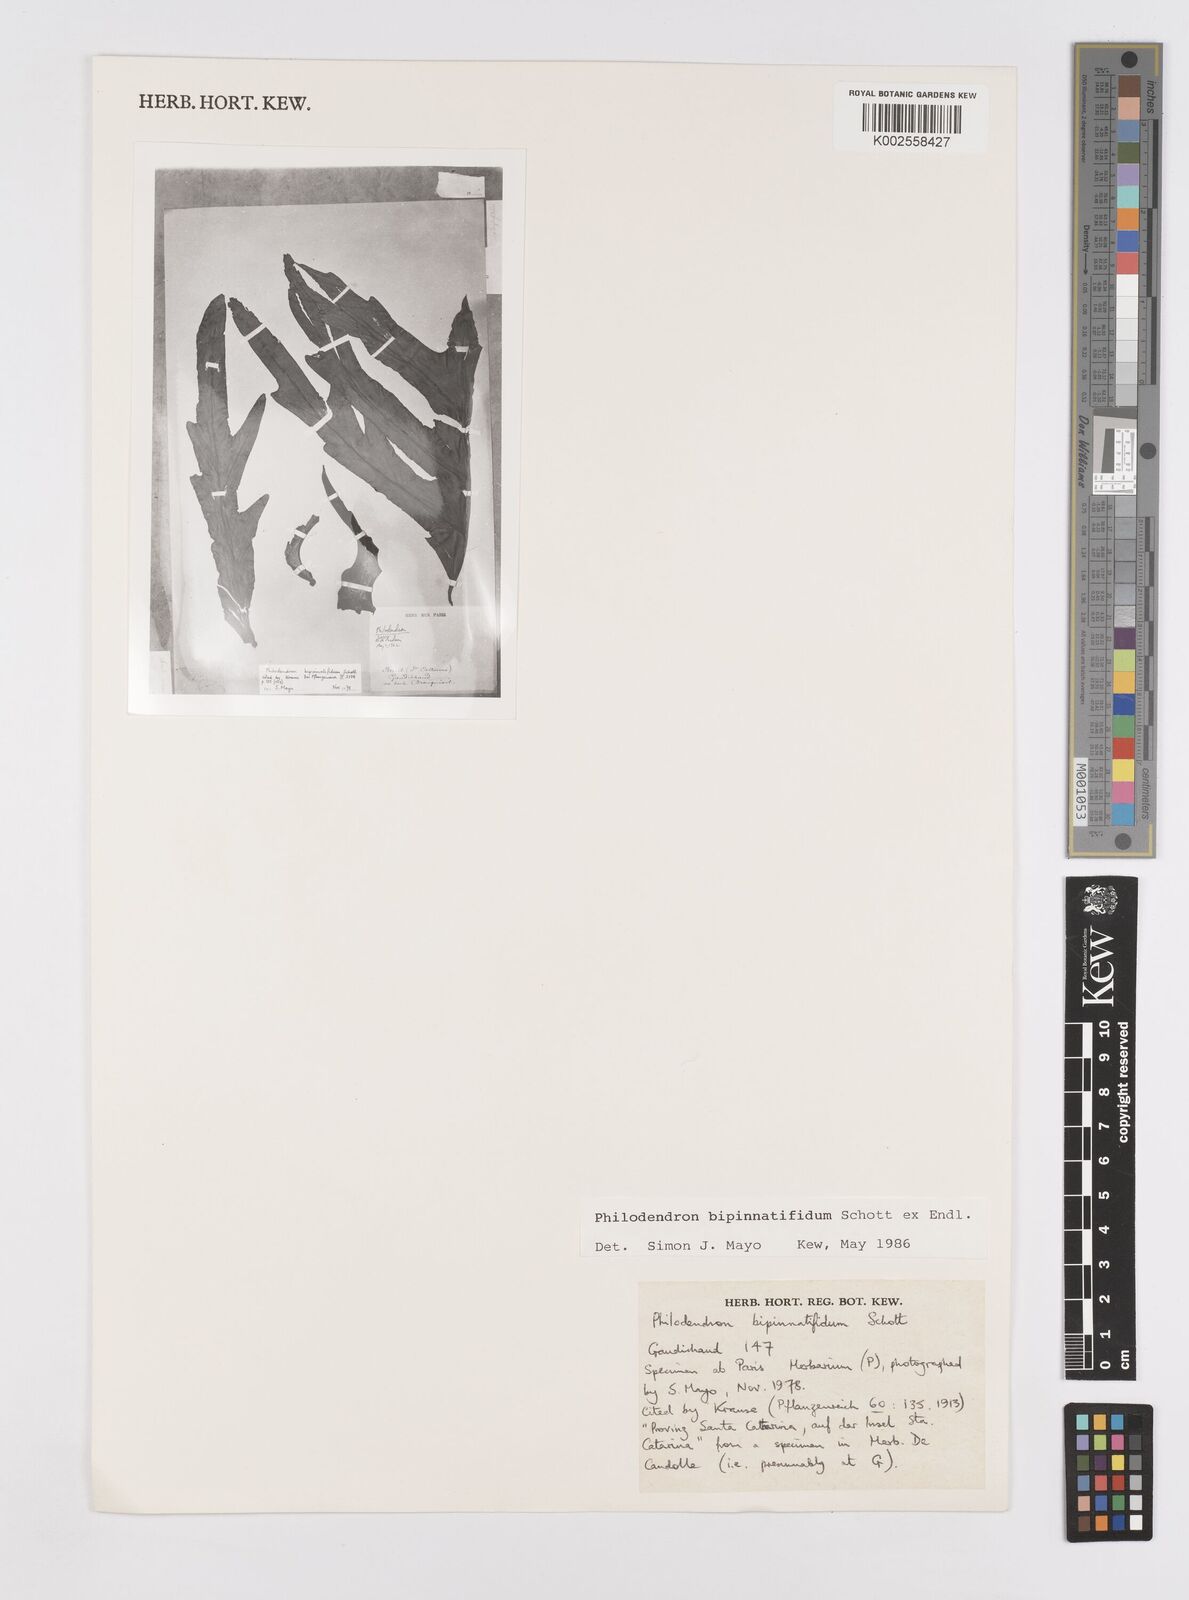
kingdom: Plantae
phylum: Tracheophyta
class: Liliopsida
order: Alismatales
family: Araceae
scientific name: Araceae
